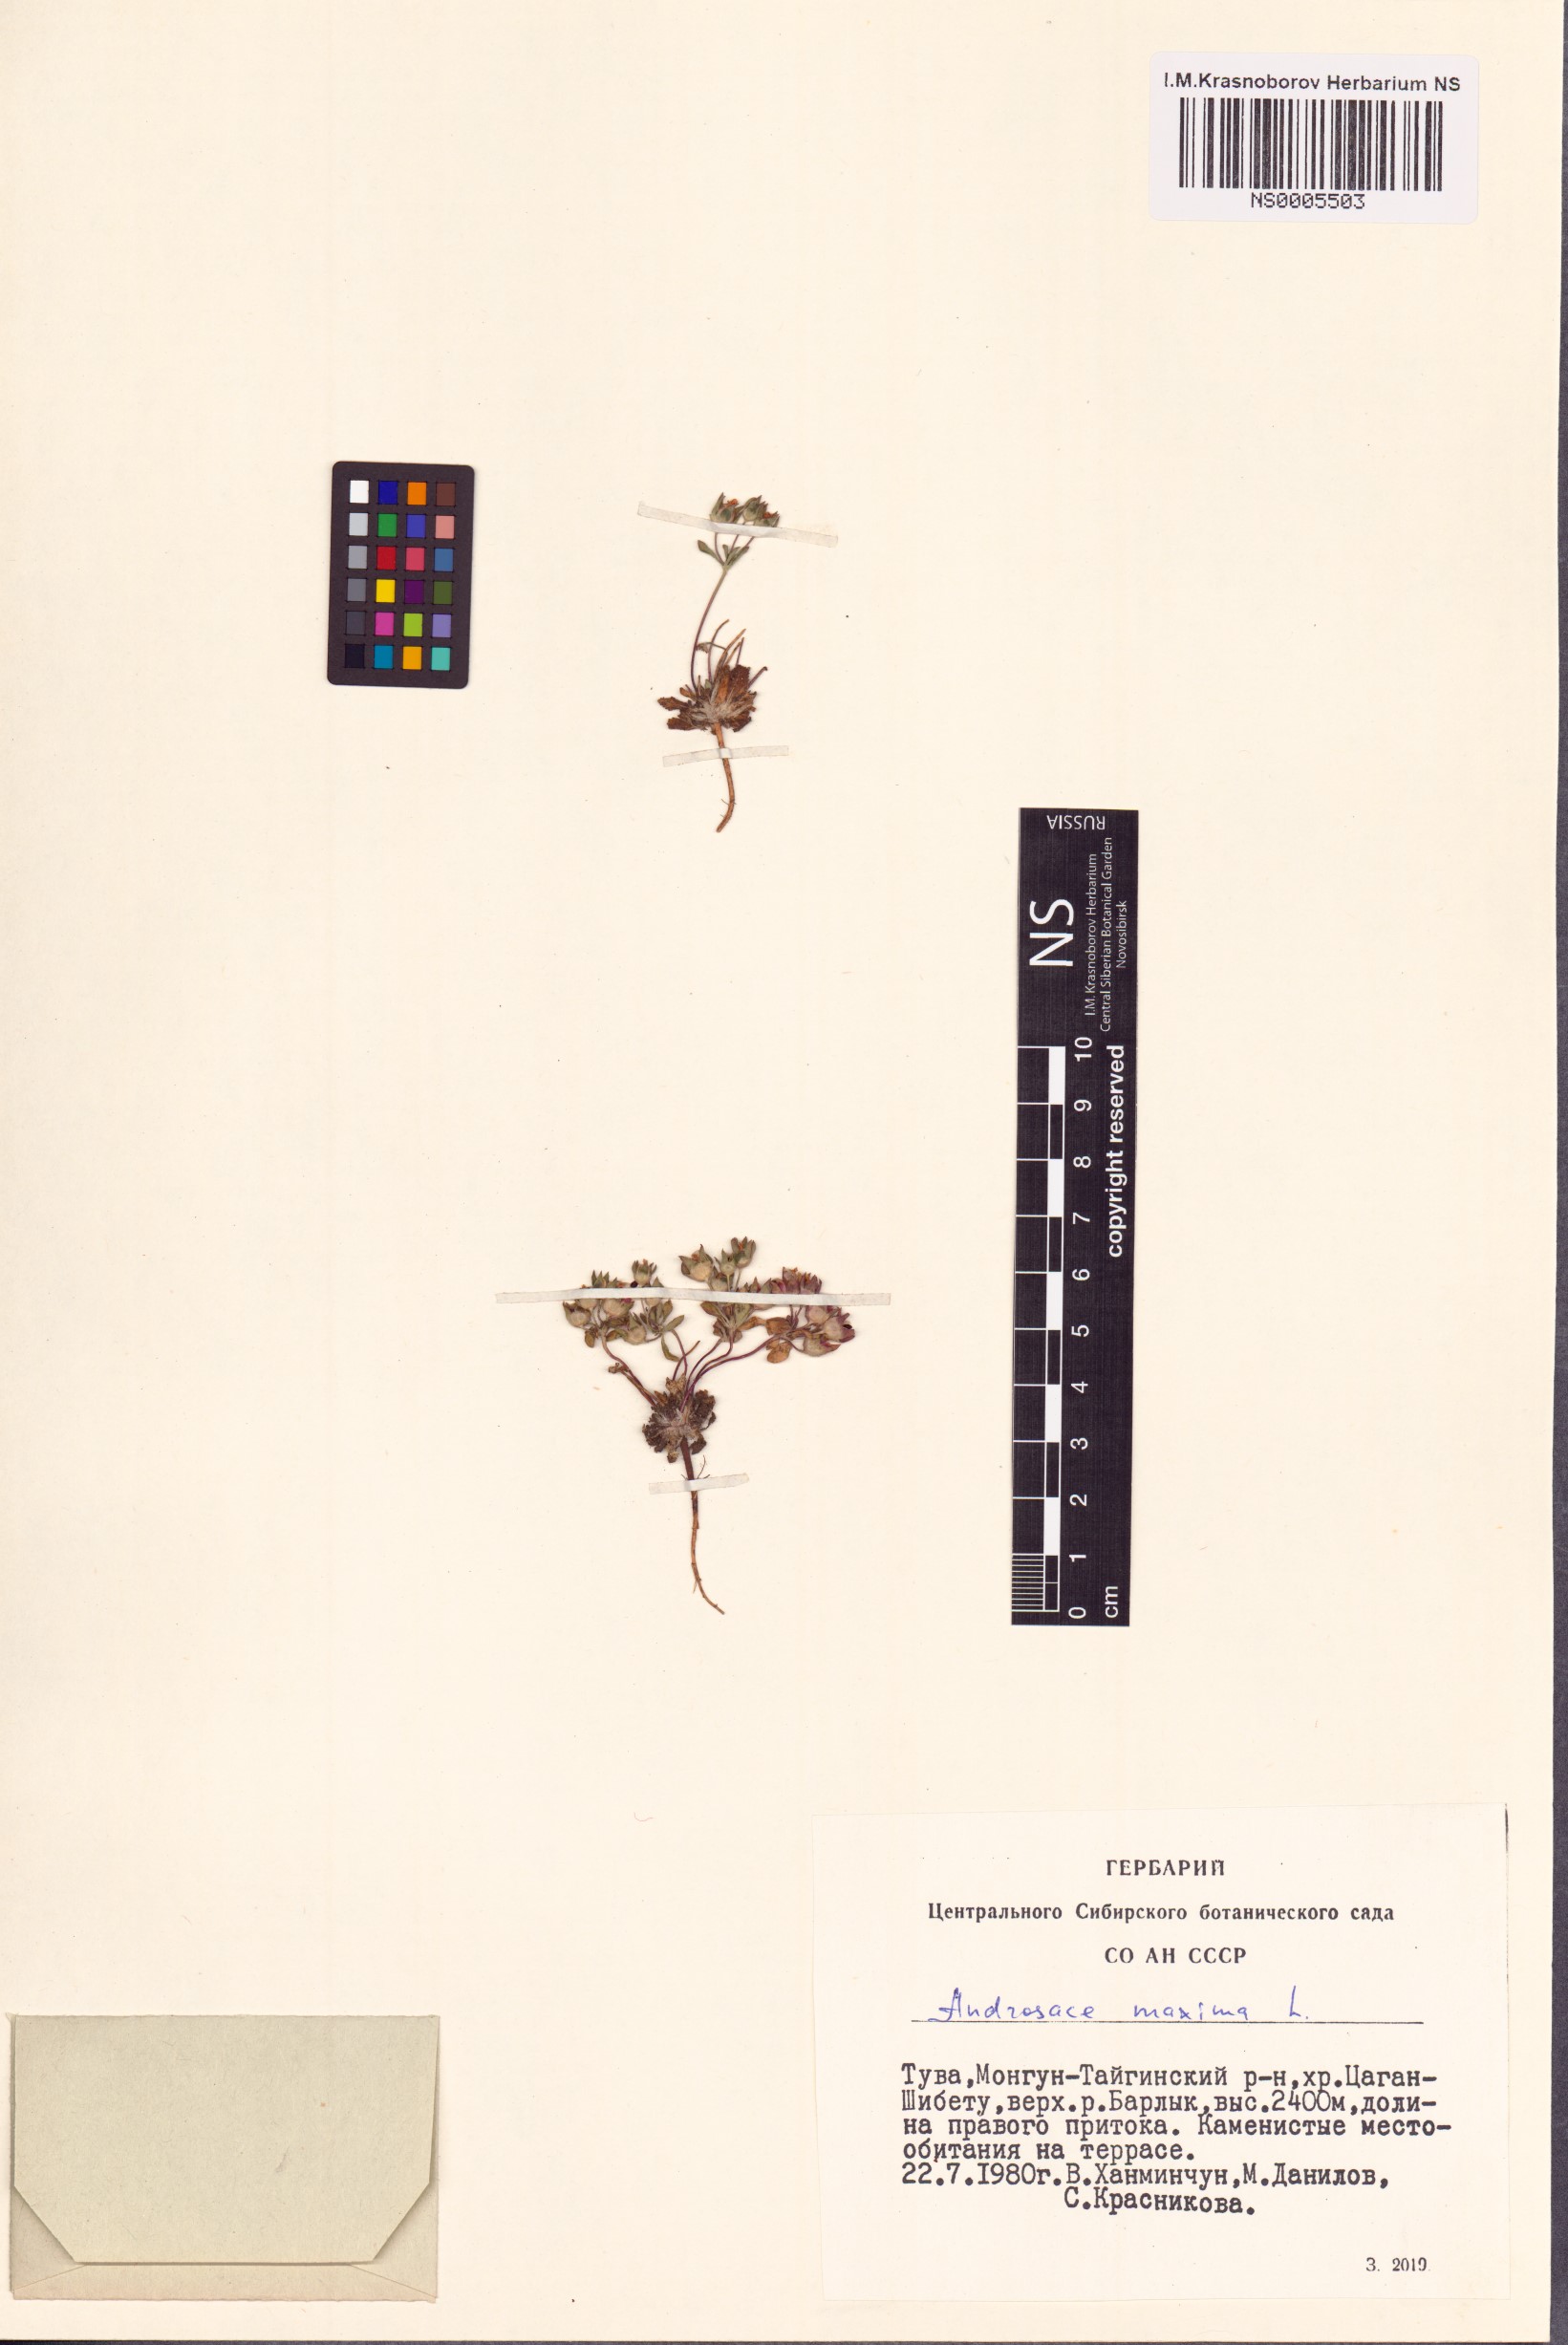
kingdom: Plantae
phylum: Tracheophyta
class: Magnoliopsida
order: Ericales
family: Primulaceae
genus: Androsace
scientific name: Androsace maxima
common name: Annual androsace
